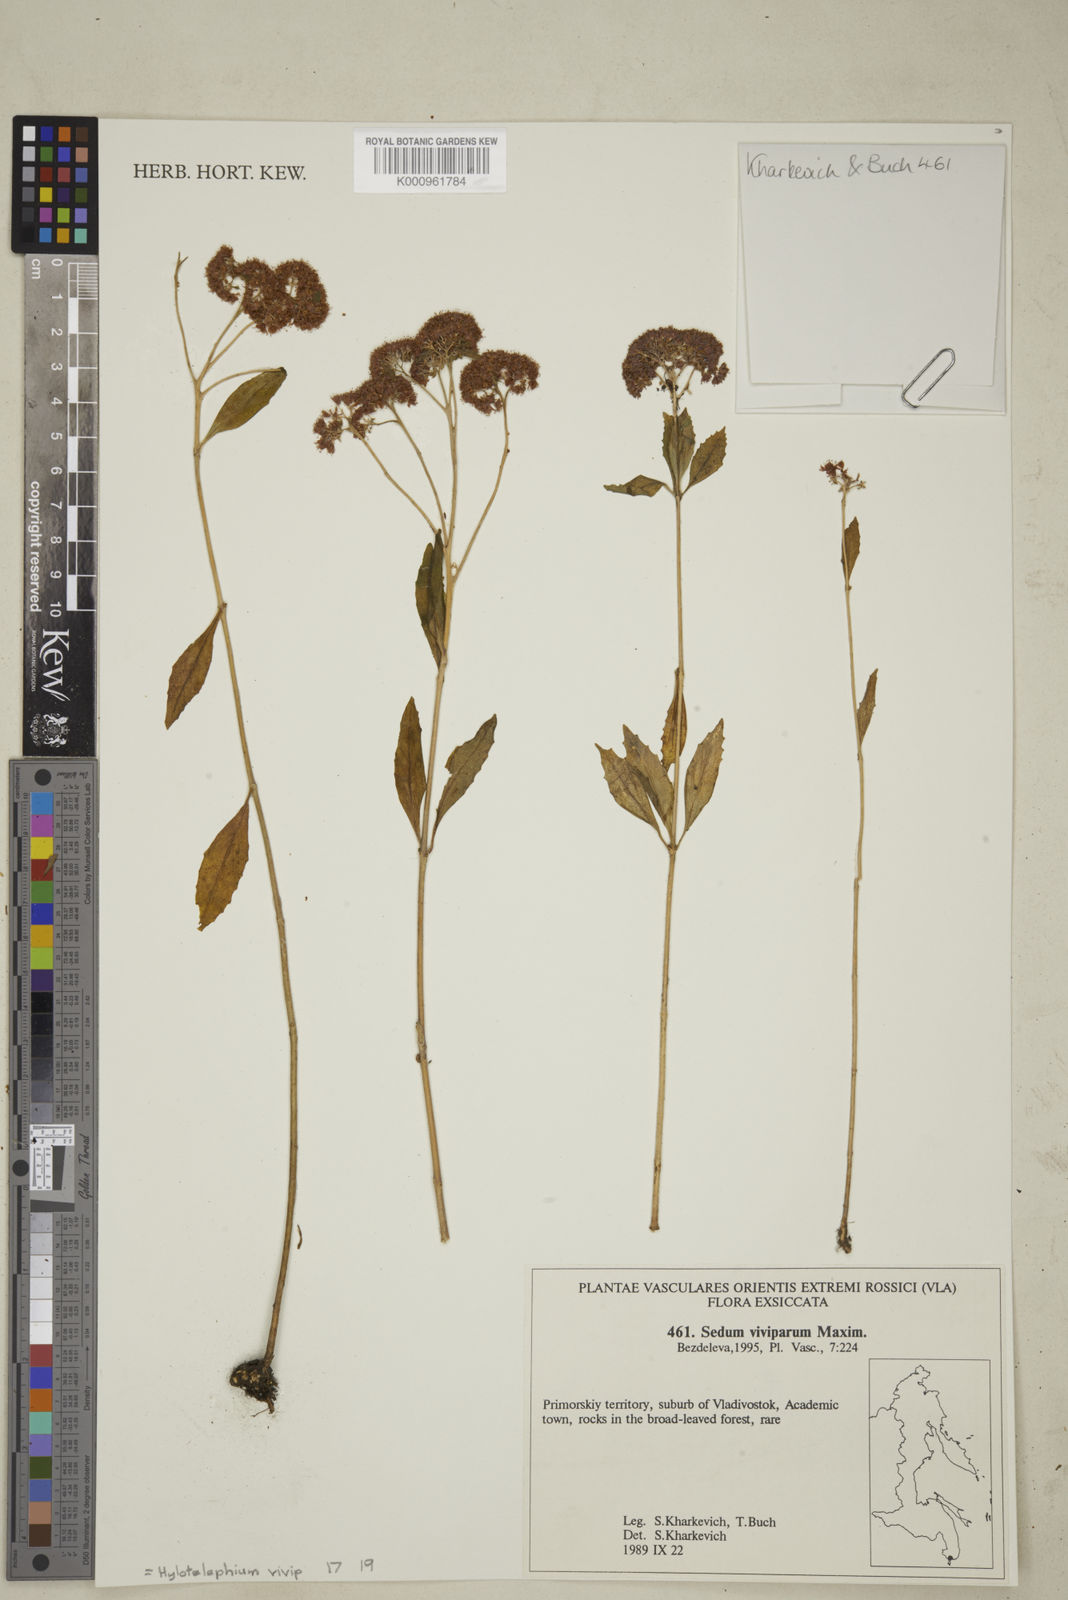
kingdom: Plantae
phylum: Tracheophyta
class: Magnoliopsida
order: Saxifragales
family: Crassulaceae
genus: Hylotelephium
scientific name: Hylotelephium viviparum
